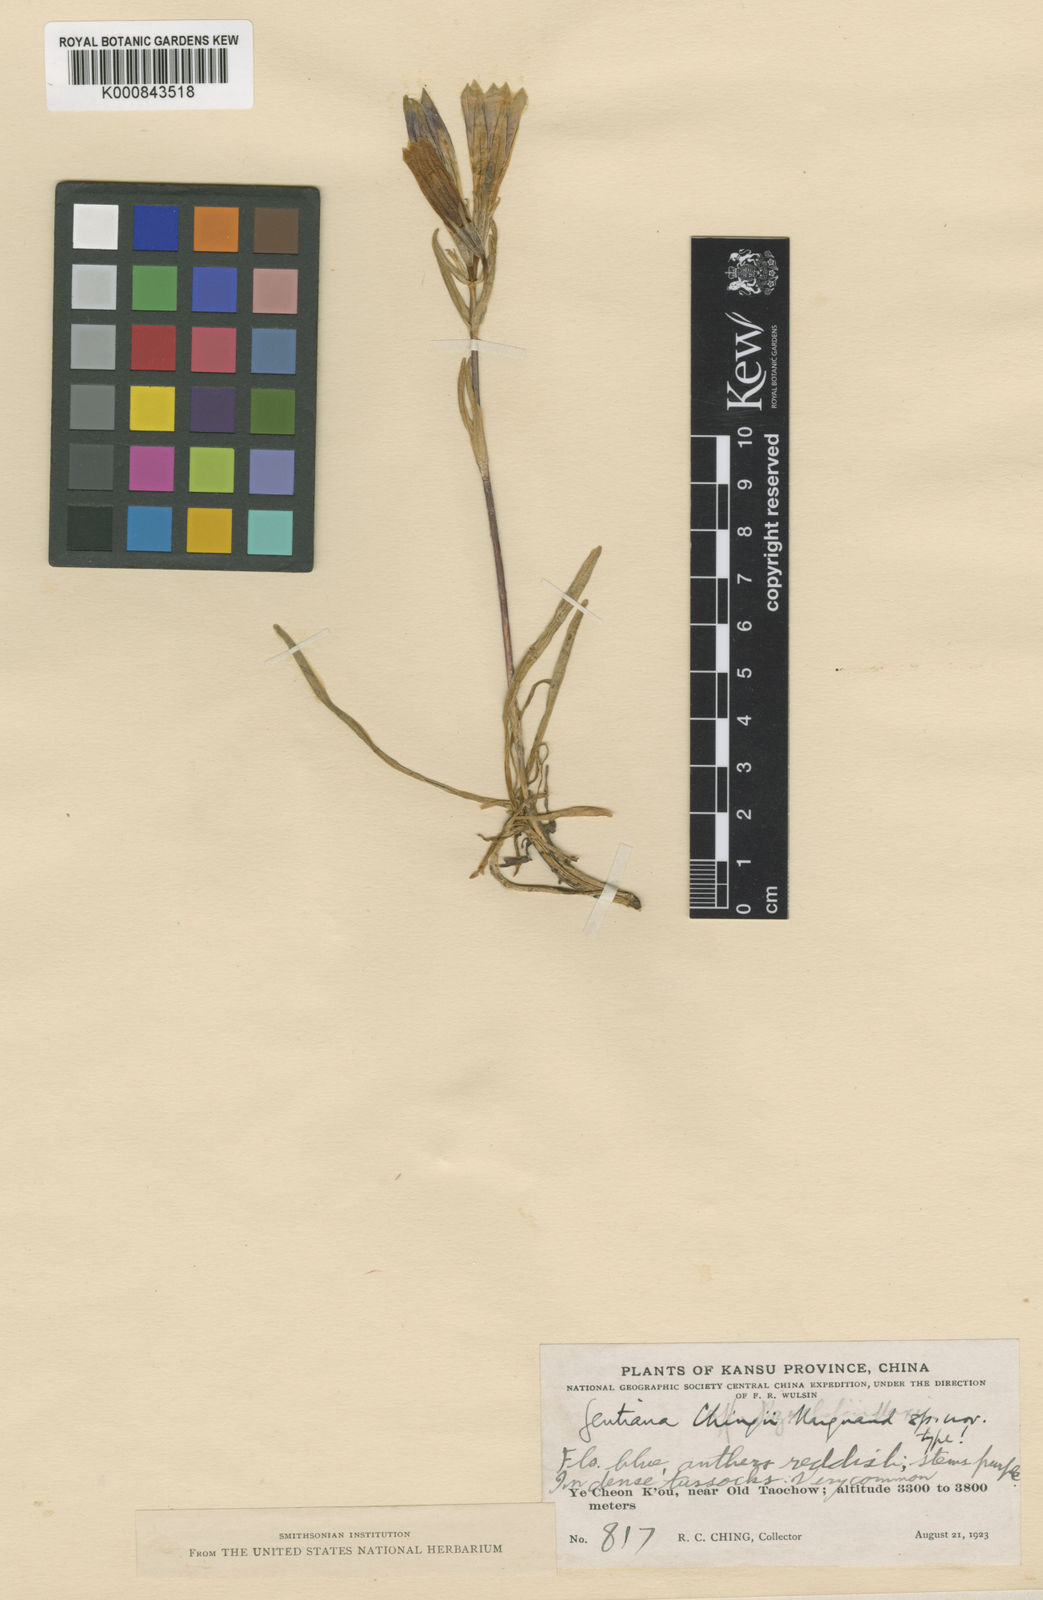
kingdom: Plantae
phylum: Tracheophyta
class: Magnoliopsida
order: Gentianales
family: Gentianaceae
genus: Gentiana
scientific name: Gentiana trichotoma
